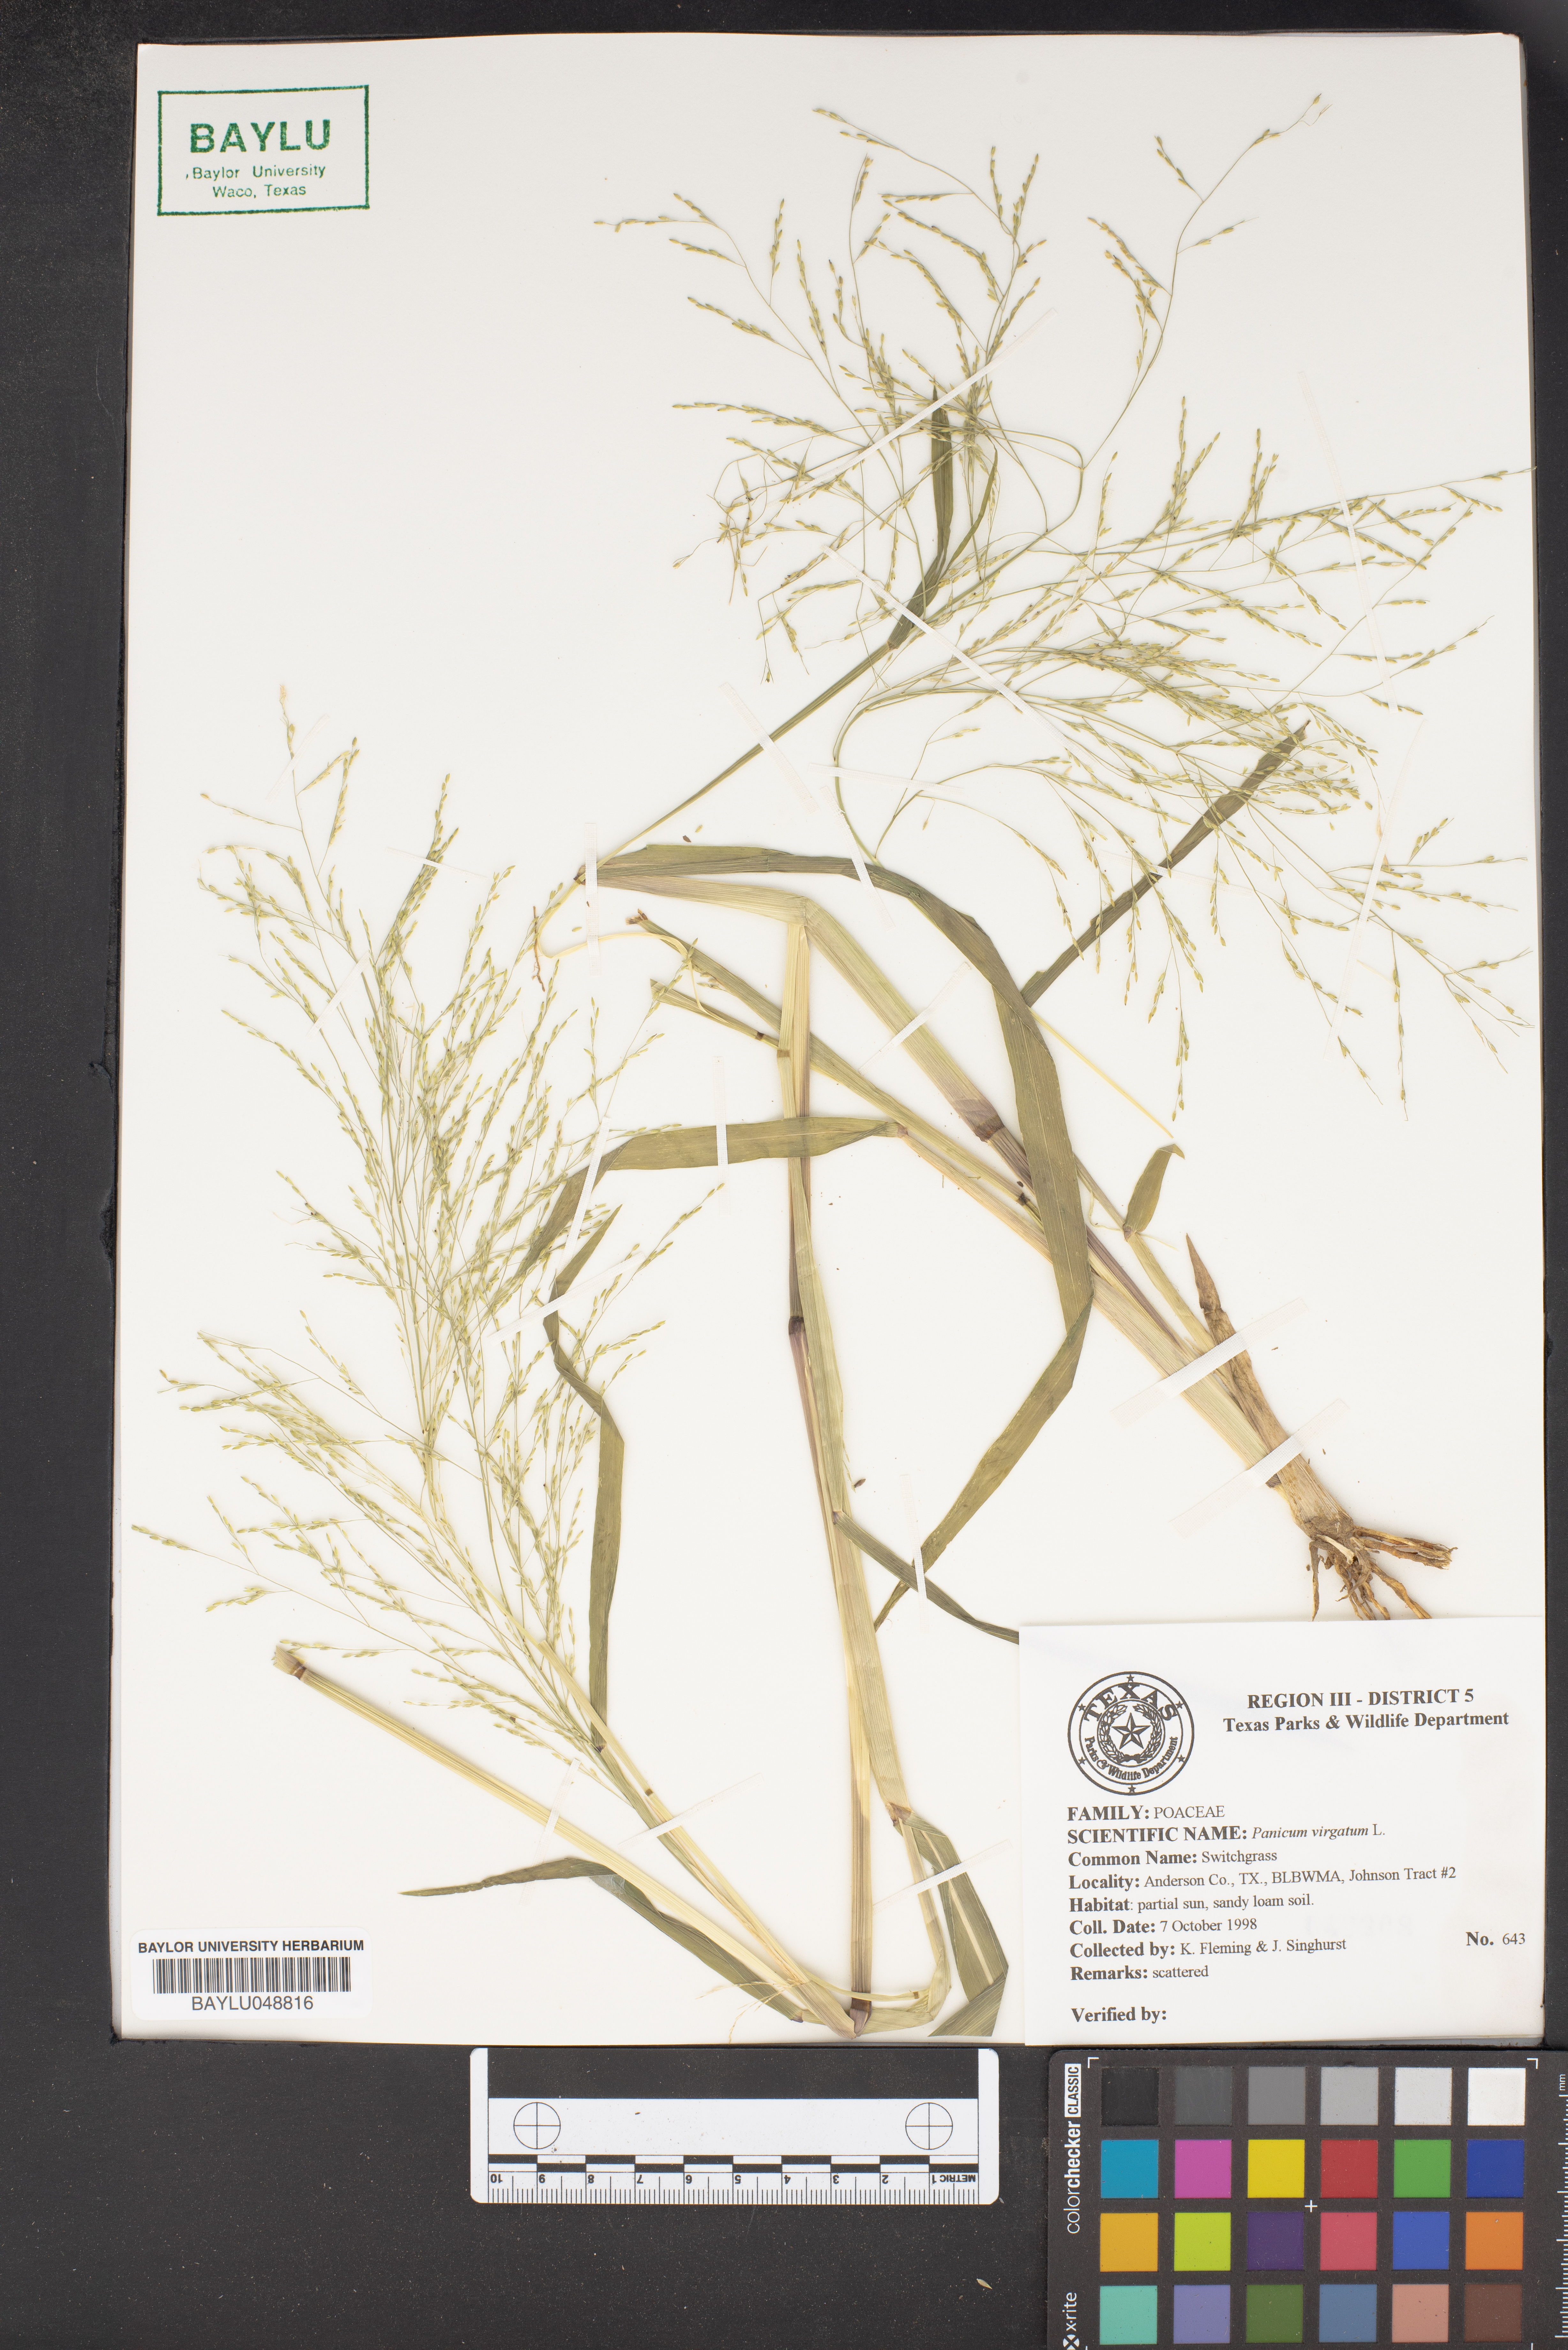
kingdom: Plantae
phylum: Tracheophyta
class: Liliopsida
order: Poales
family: Poaceae
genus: Panicum
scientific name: Panicum virgatum
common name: Switchgrass
